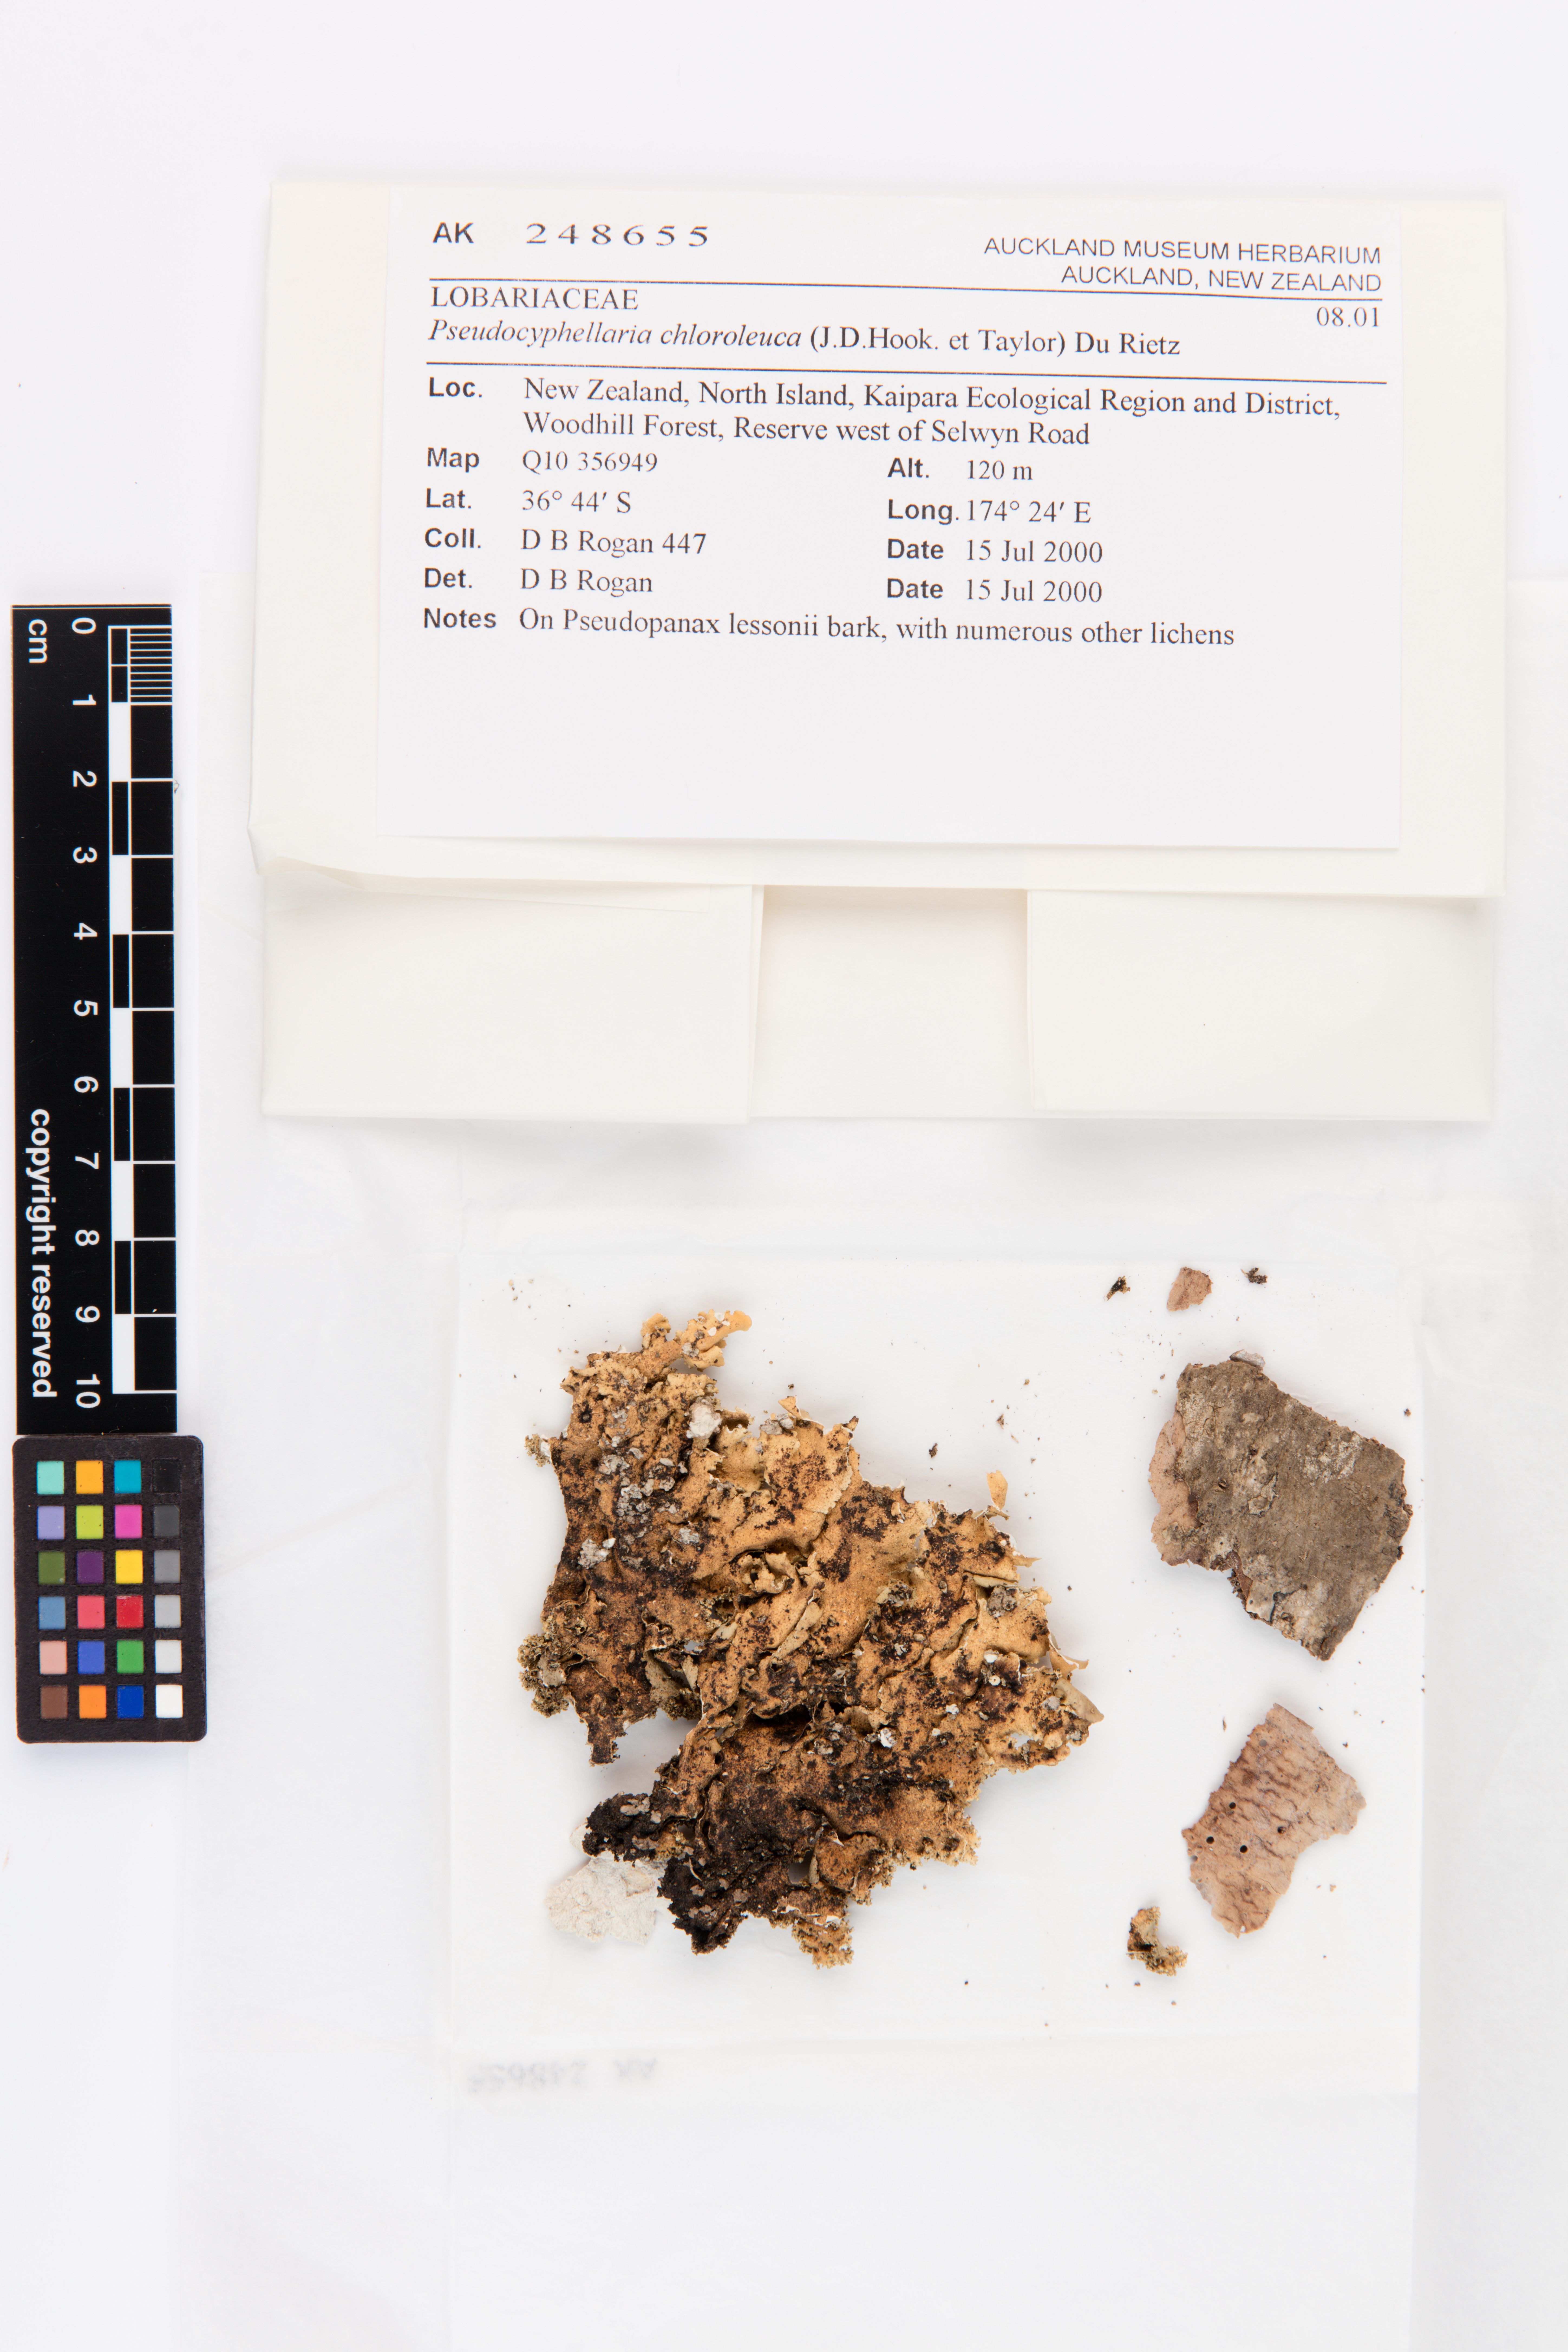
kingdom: Fungi
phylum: Ascomycota
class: Lecanoromycetes
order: Peltigerales
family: Lobariaceae
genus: Pseudocyphellaria
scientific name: Pseudocyphellaria chloroleuca
